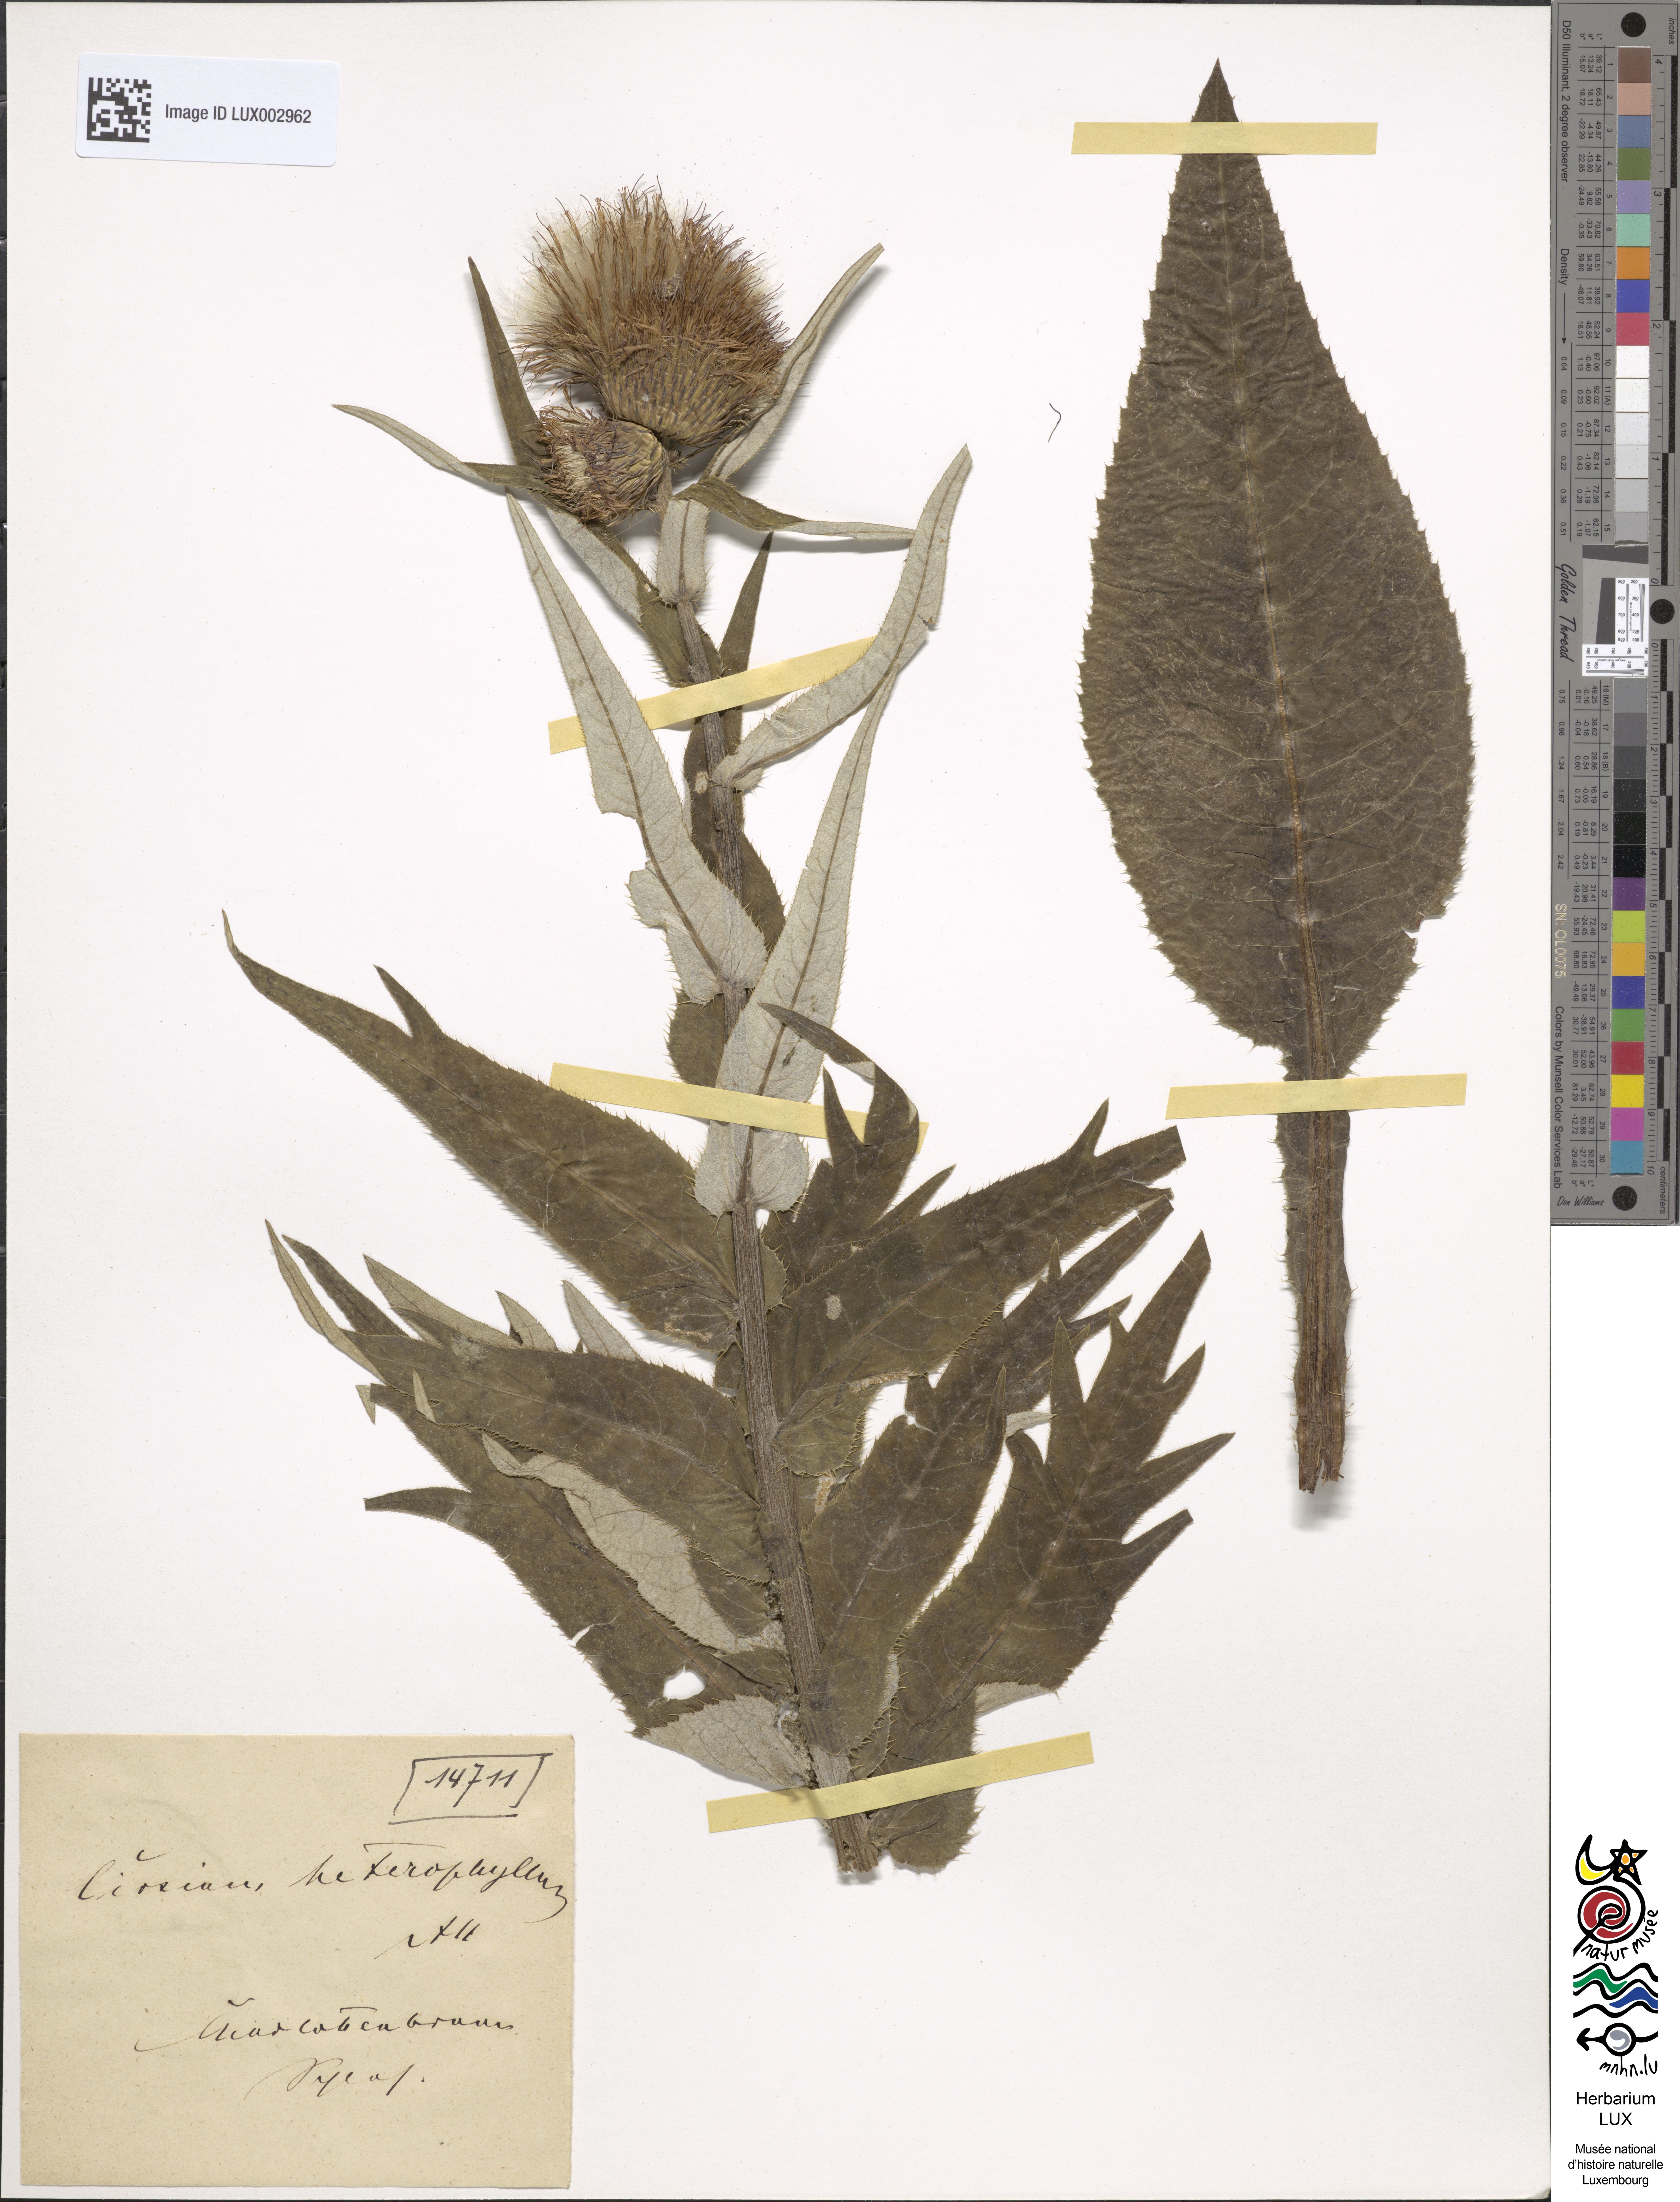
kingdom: Plantae
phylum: Tracheophyta
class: Magnoliopsida
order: Asterales
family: Asteraceae
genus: Cirsium
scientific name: Cirsium heterophyllum
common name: Melancholy thistle
